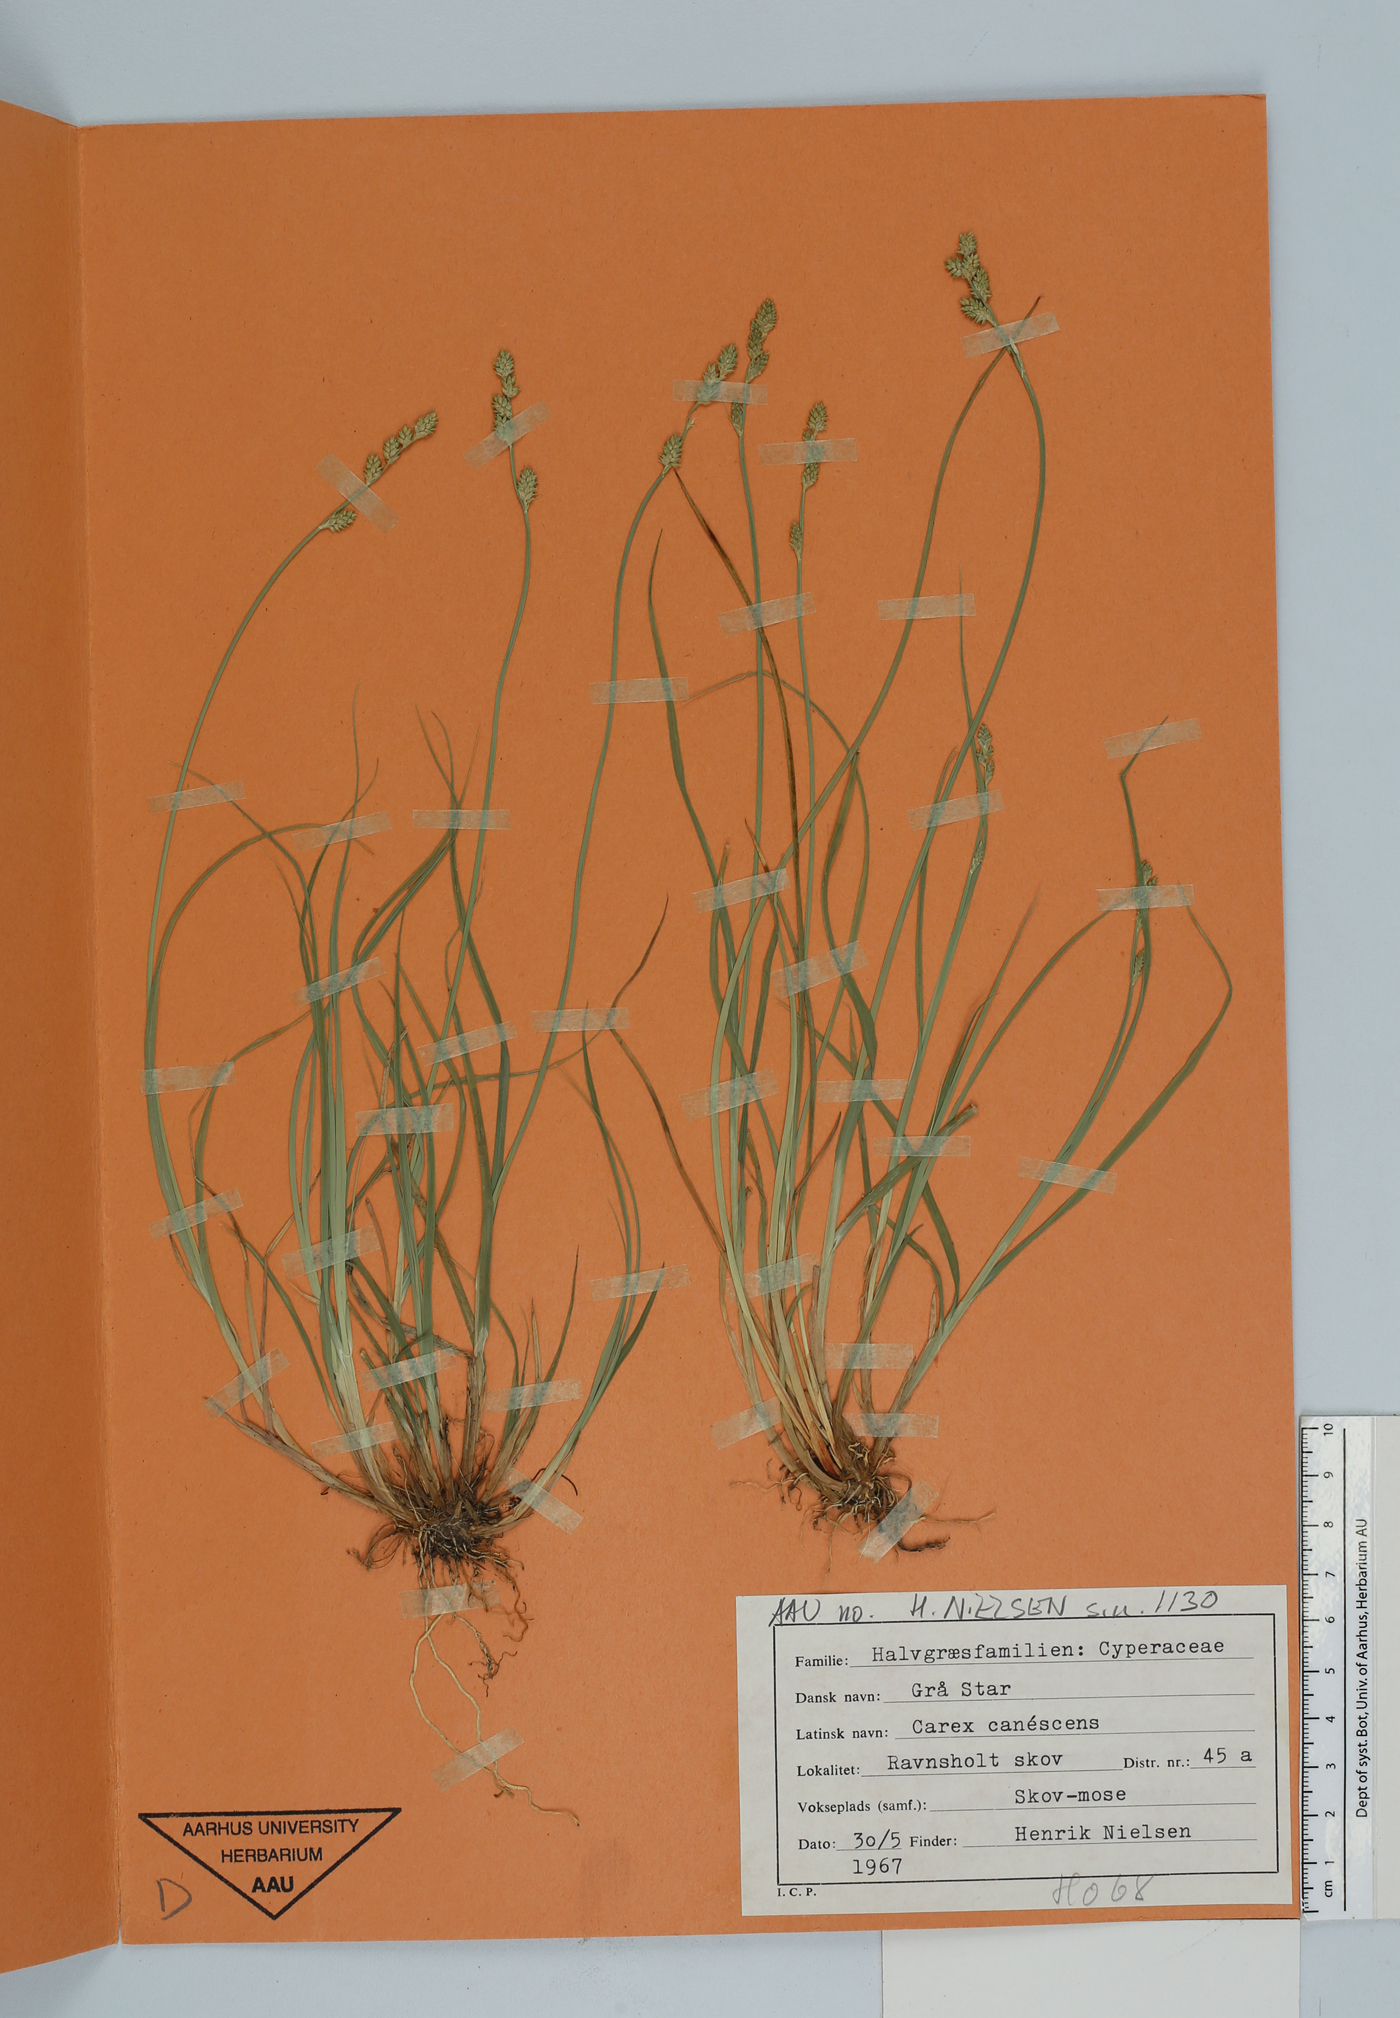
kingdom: Plantae
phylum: Tracheophyta
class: Liliopsida
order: Poales
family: Cyperaceae
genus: Carex
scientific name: Carex canescens
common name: White sedge
